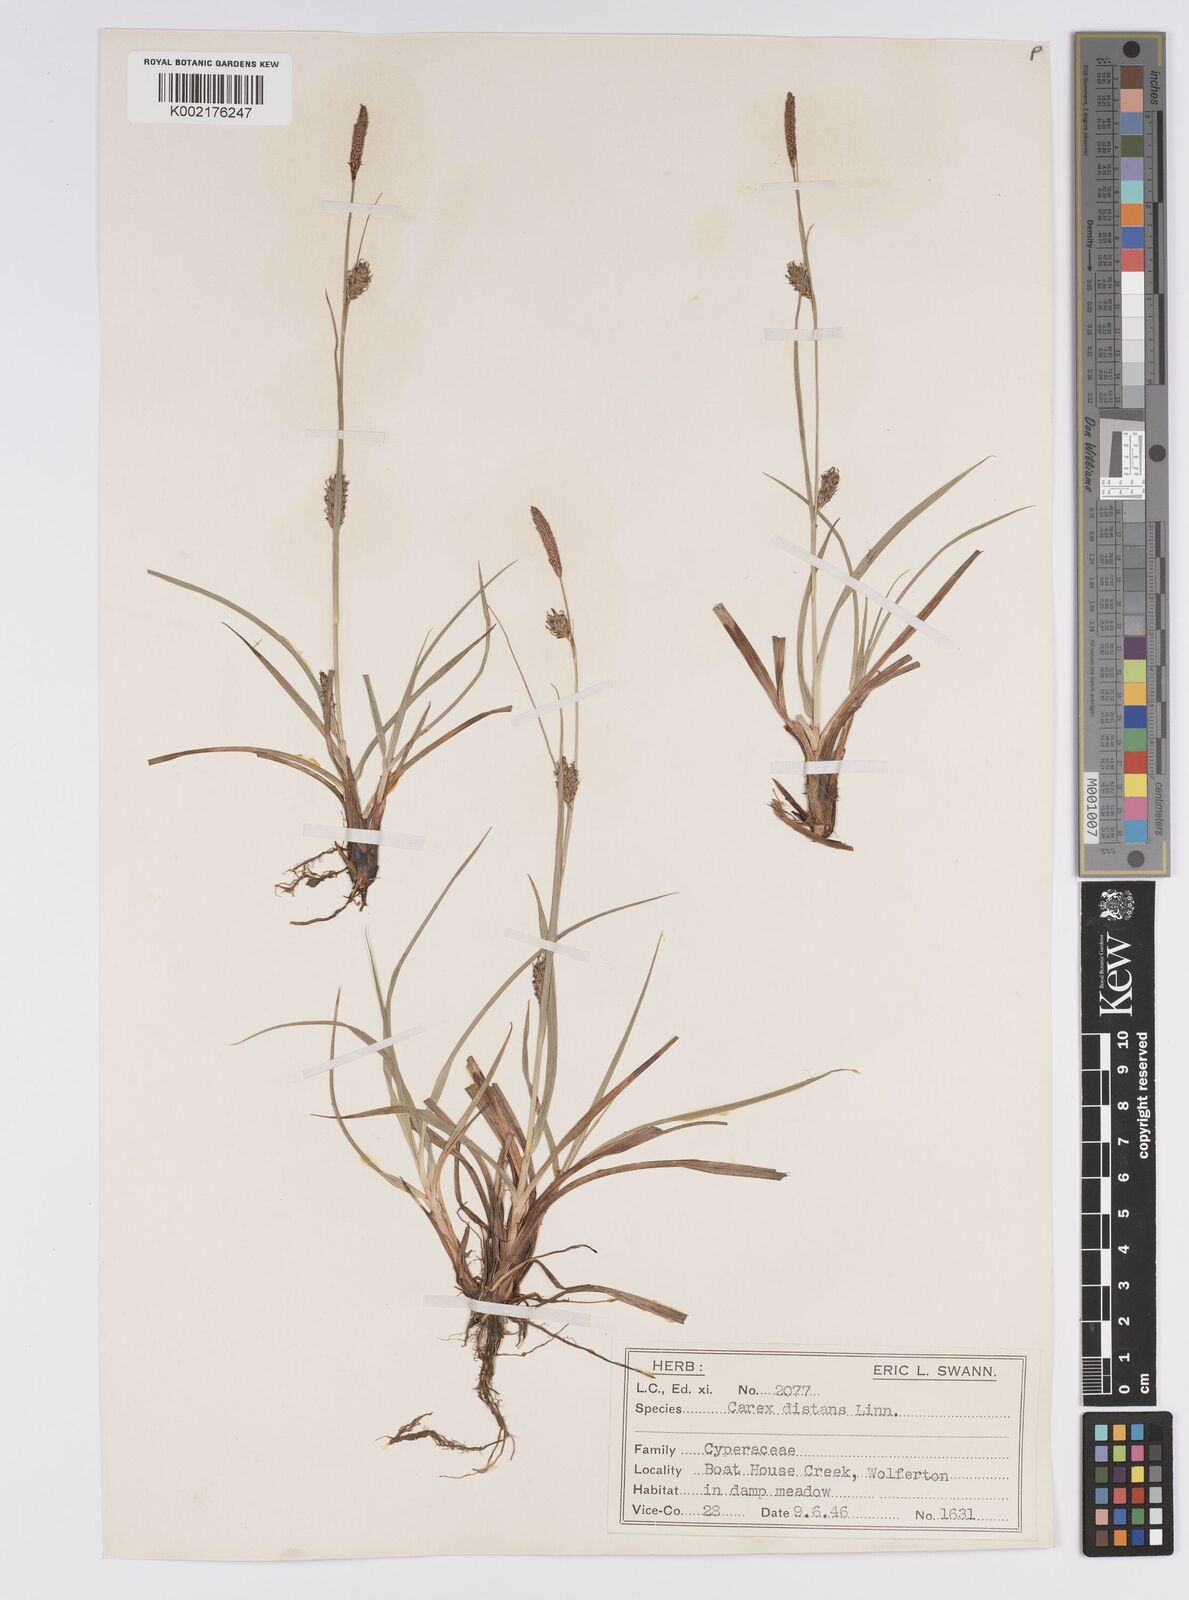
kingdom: Plantae
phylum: Tracheophyta
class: Liliopsida
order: Poales
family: Cyperaceae
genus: Carex
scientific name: Carex distans
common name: Distant sedge
